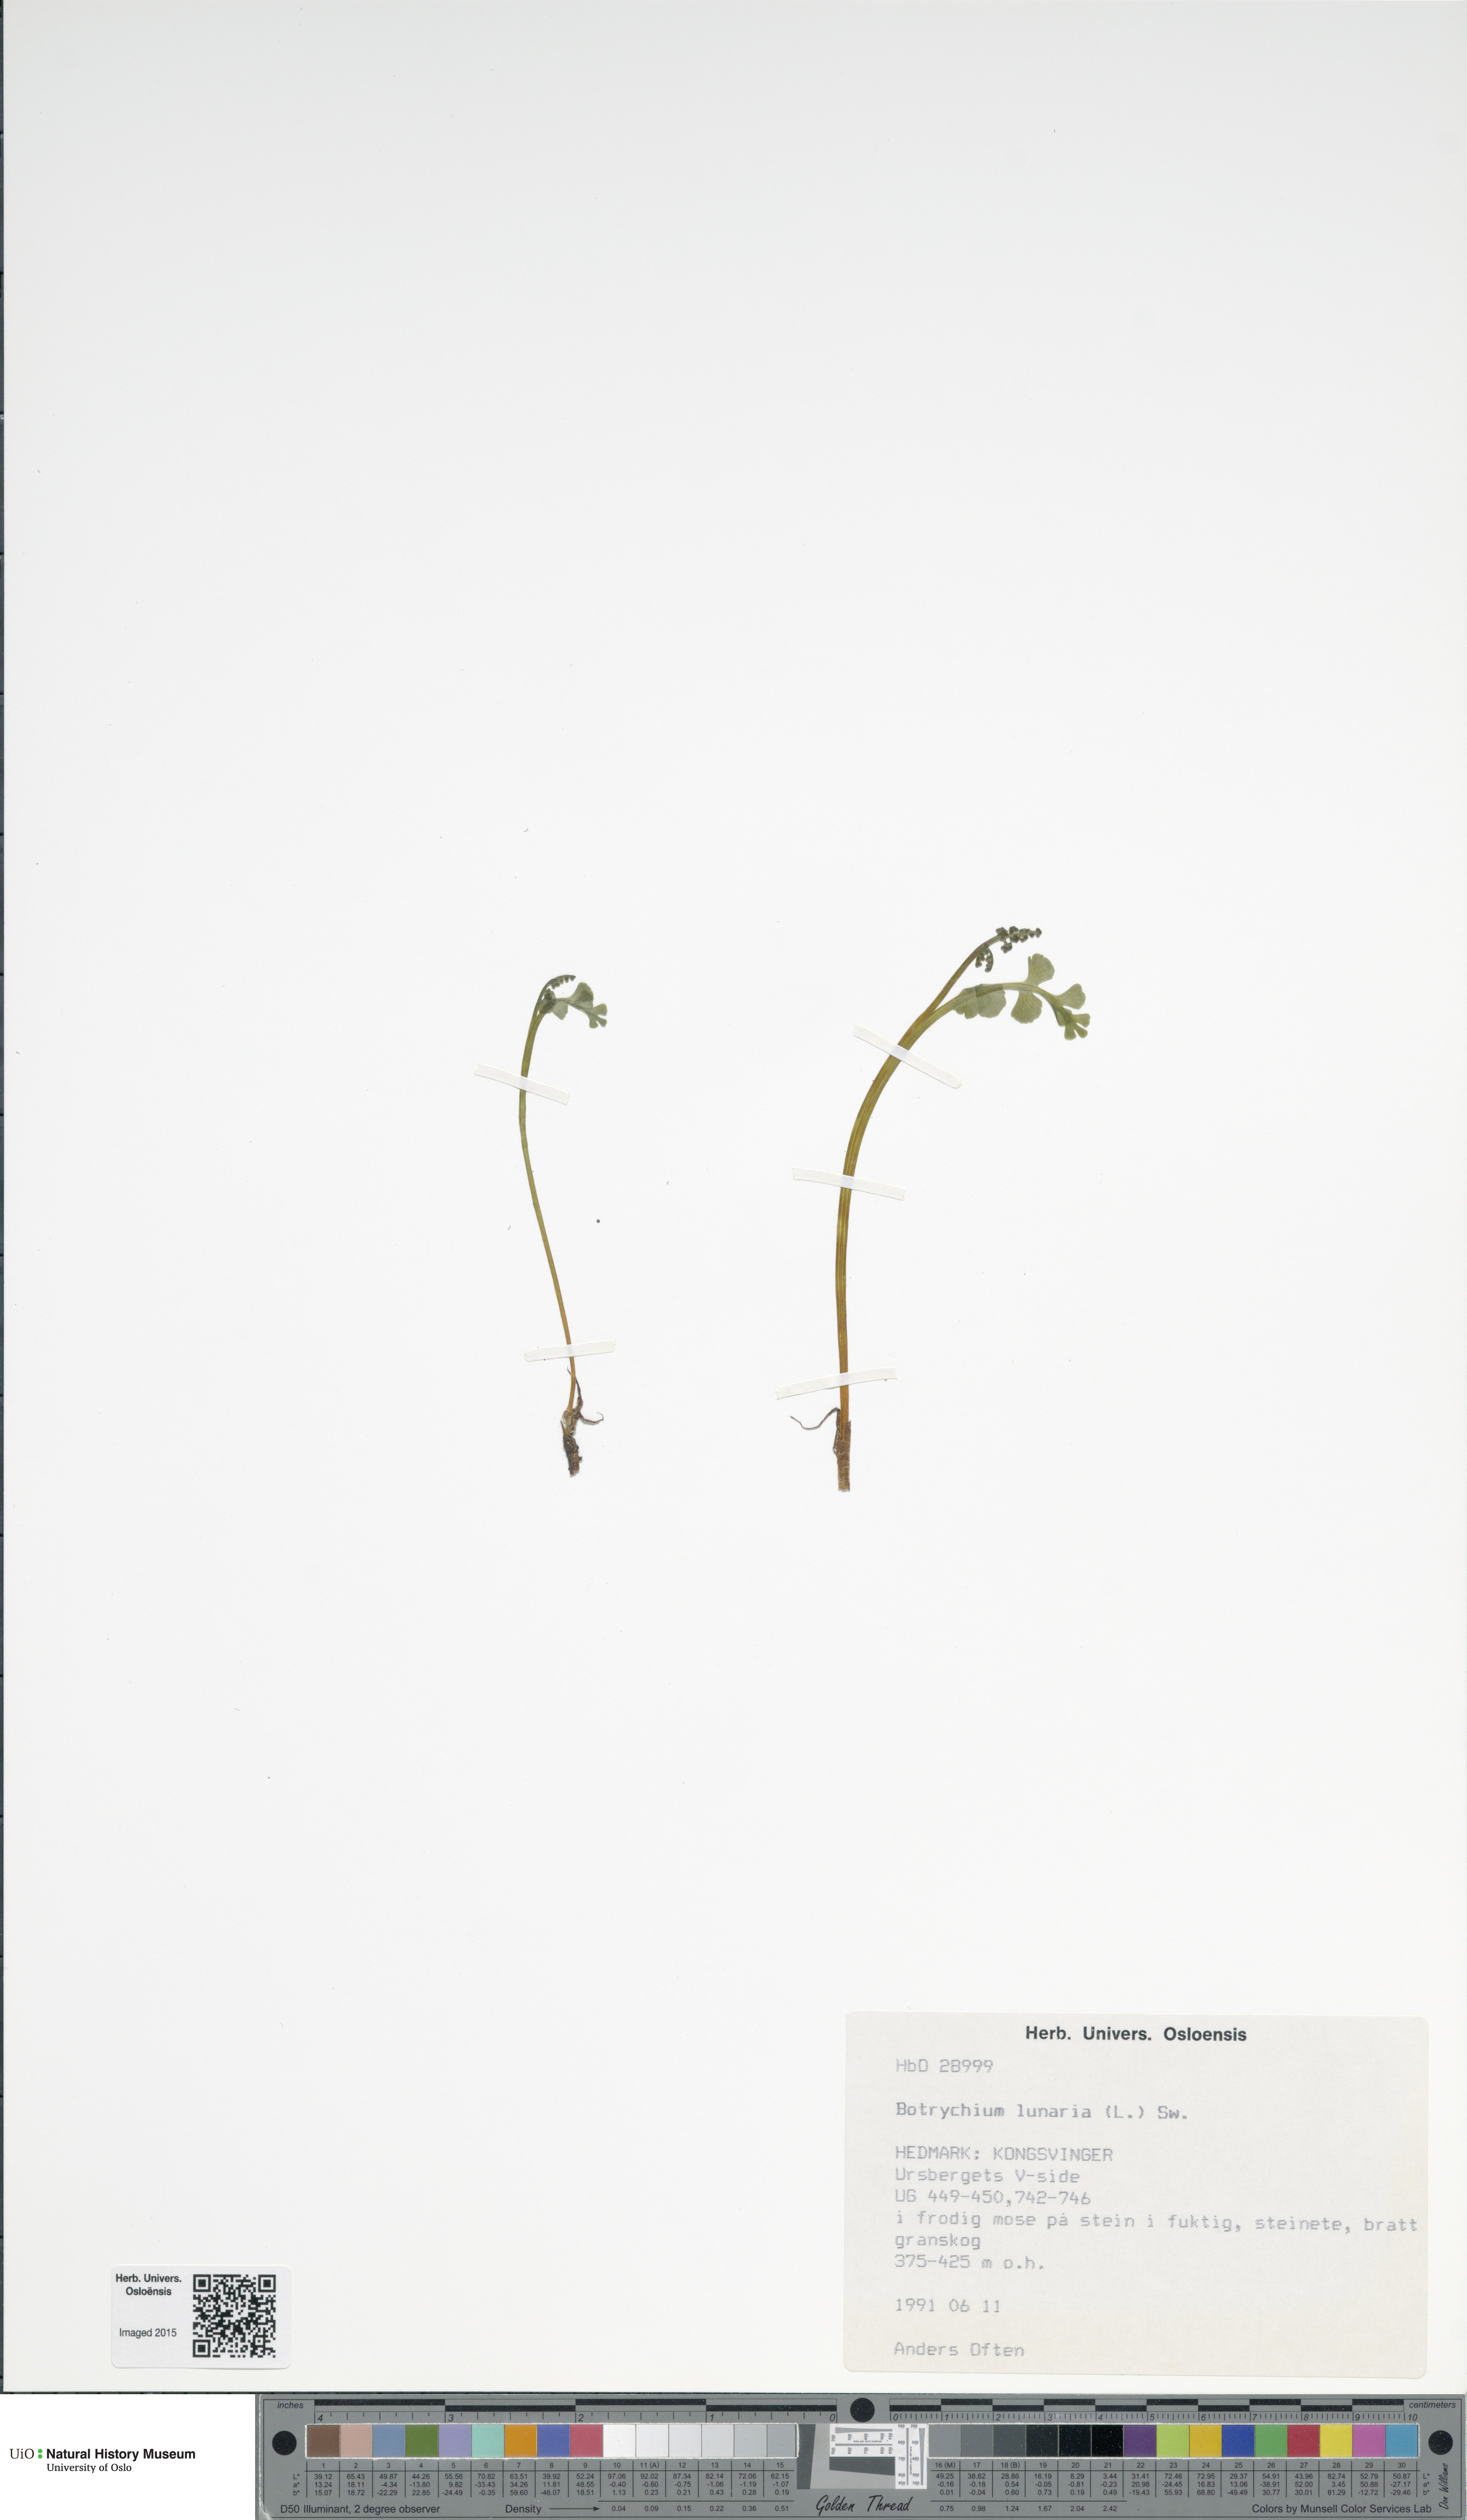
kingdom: Plantae
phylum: Tracheophyta
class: Polypodiopsida
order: Ophioglossales
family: Ophioglossaceae
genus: Botrychium
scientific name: Botrychium lunaria
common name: Moonwort
